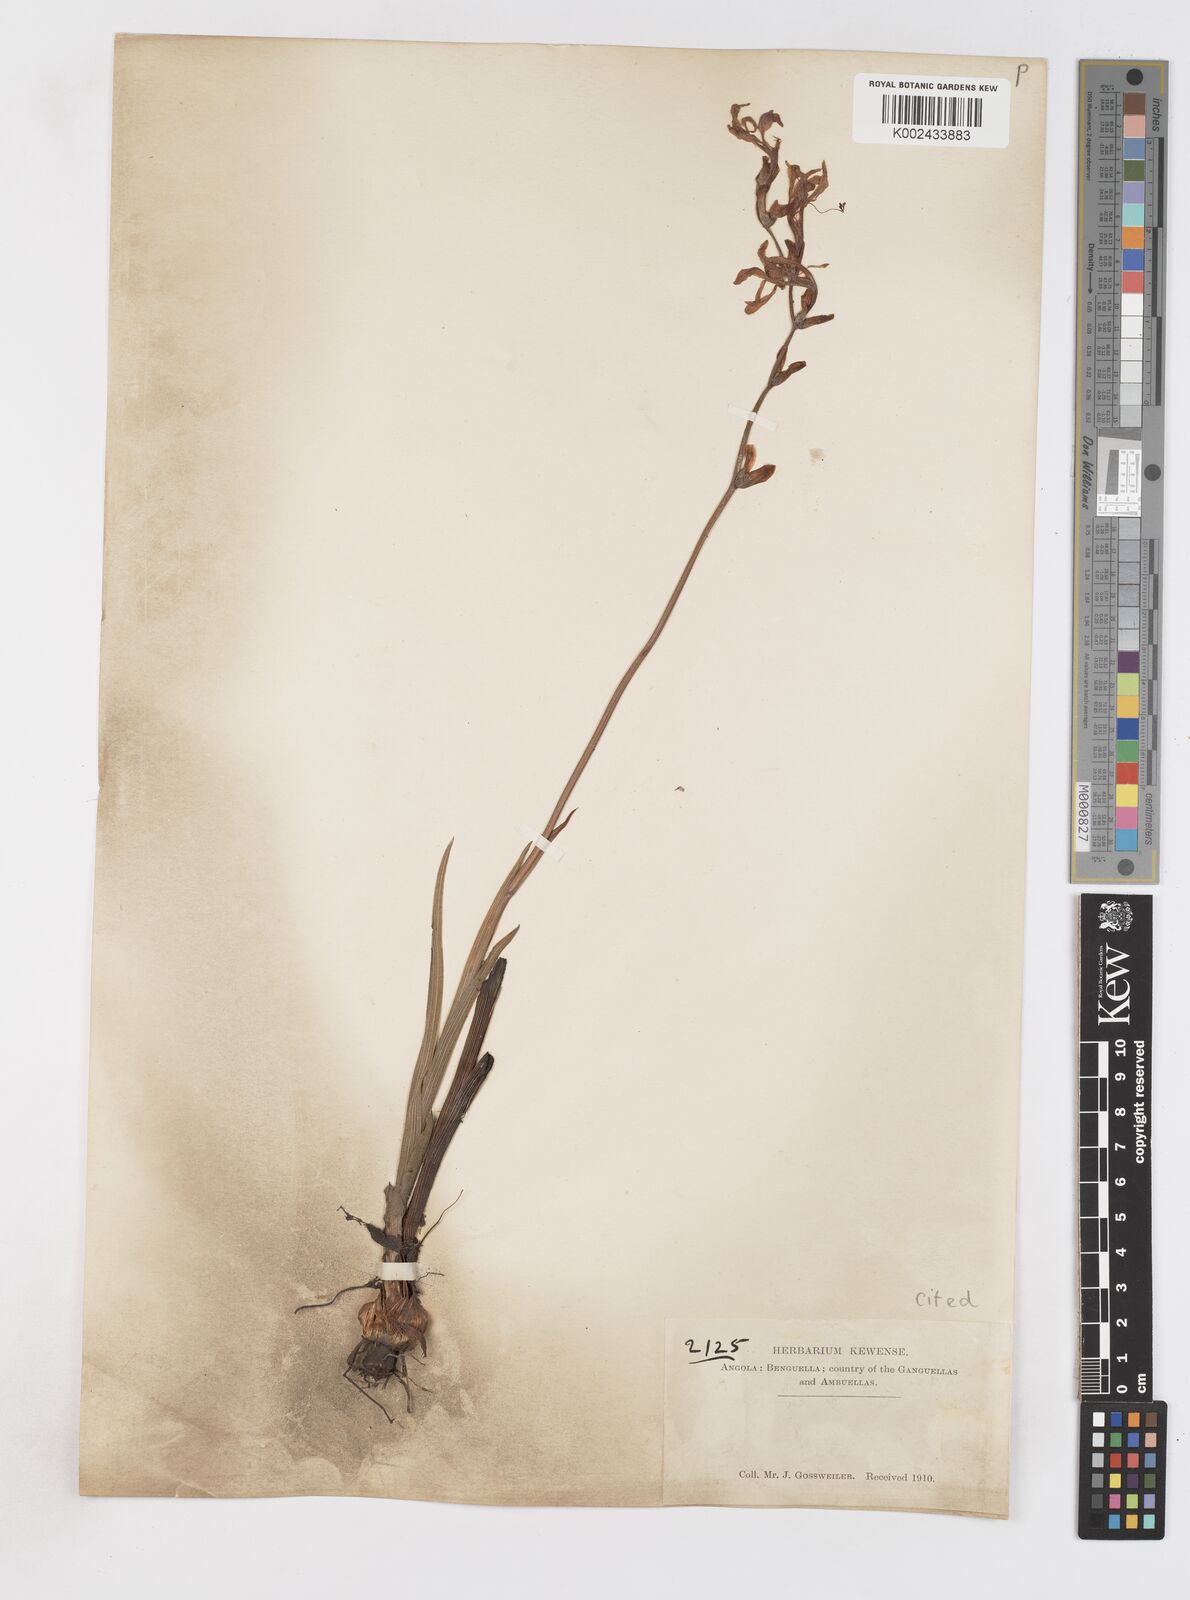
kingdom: Plantae
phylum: Tracheophyta
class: Liliopsida
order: Asparagales
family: Iridaceae
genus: Gladiolus
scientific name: Gladiolus laxiflorus
